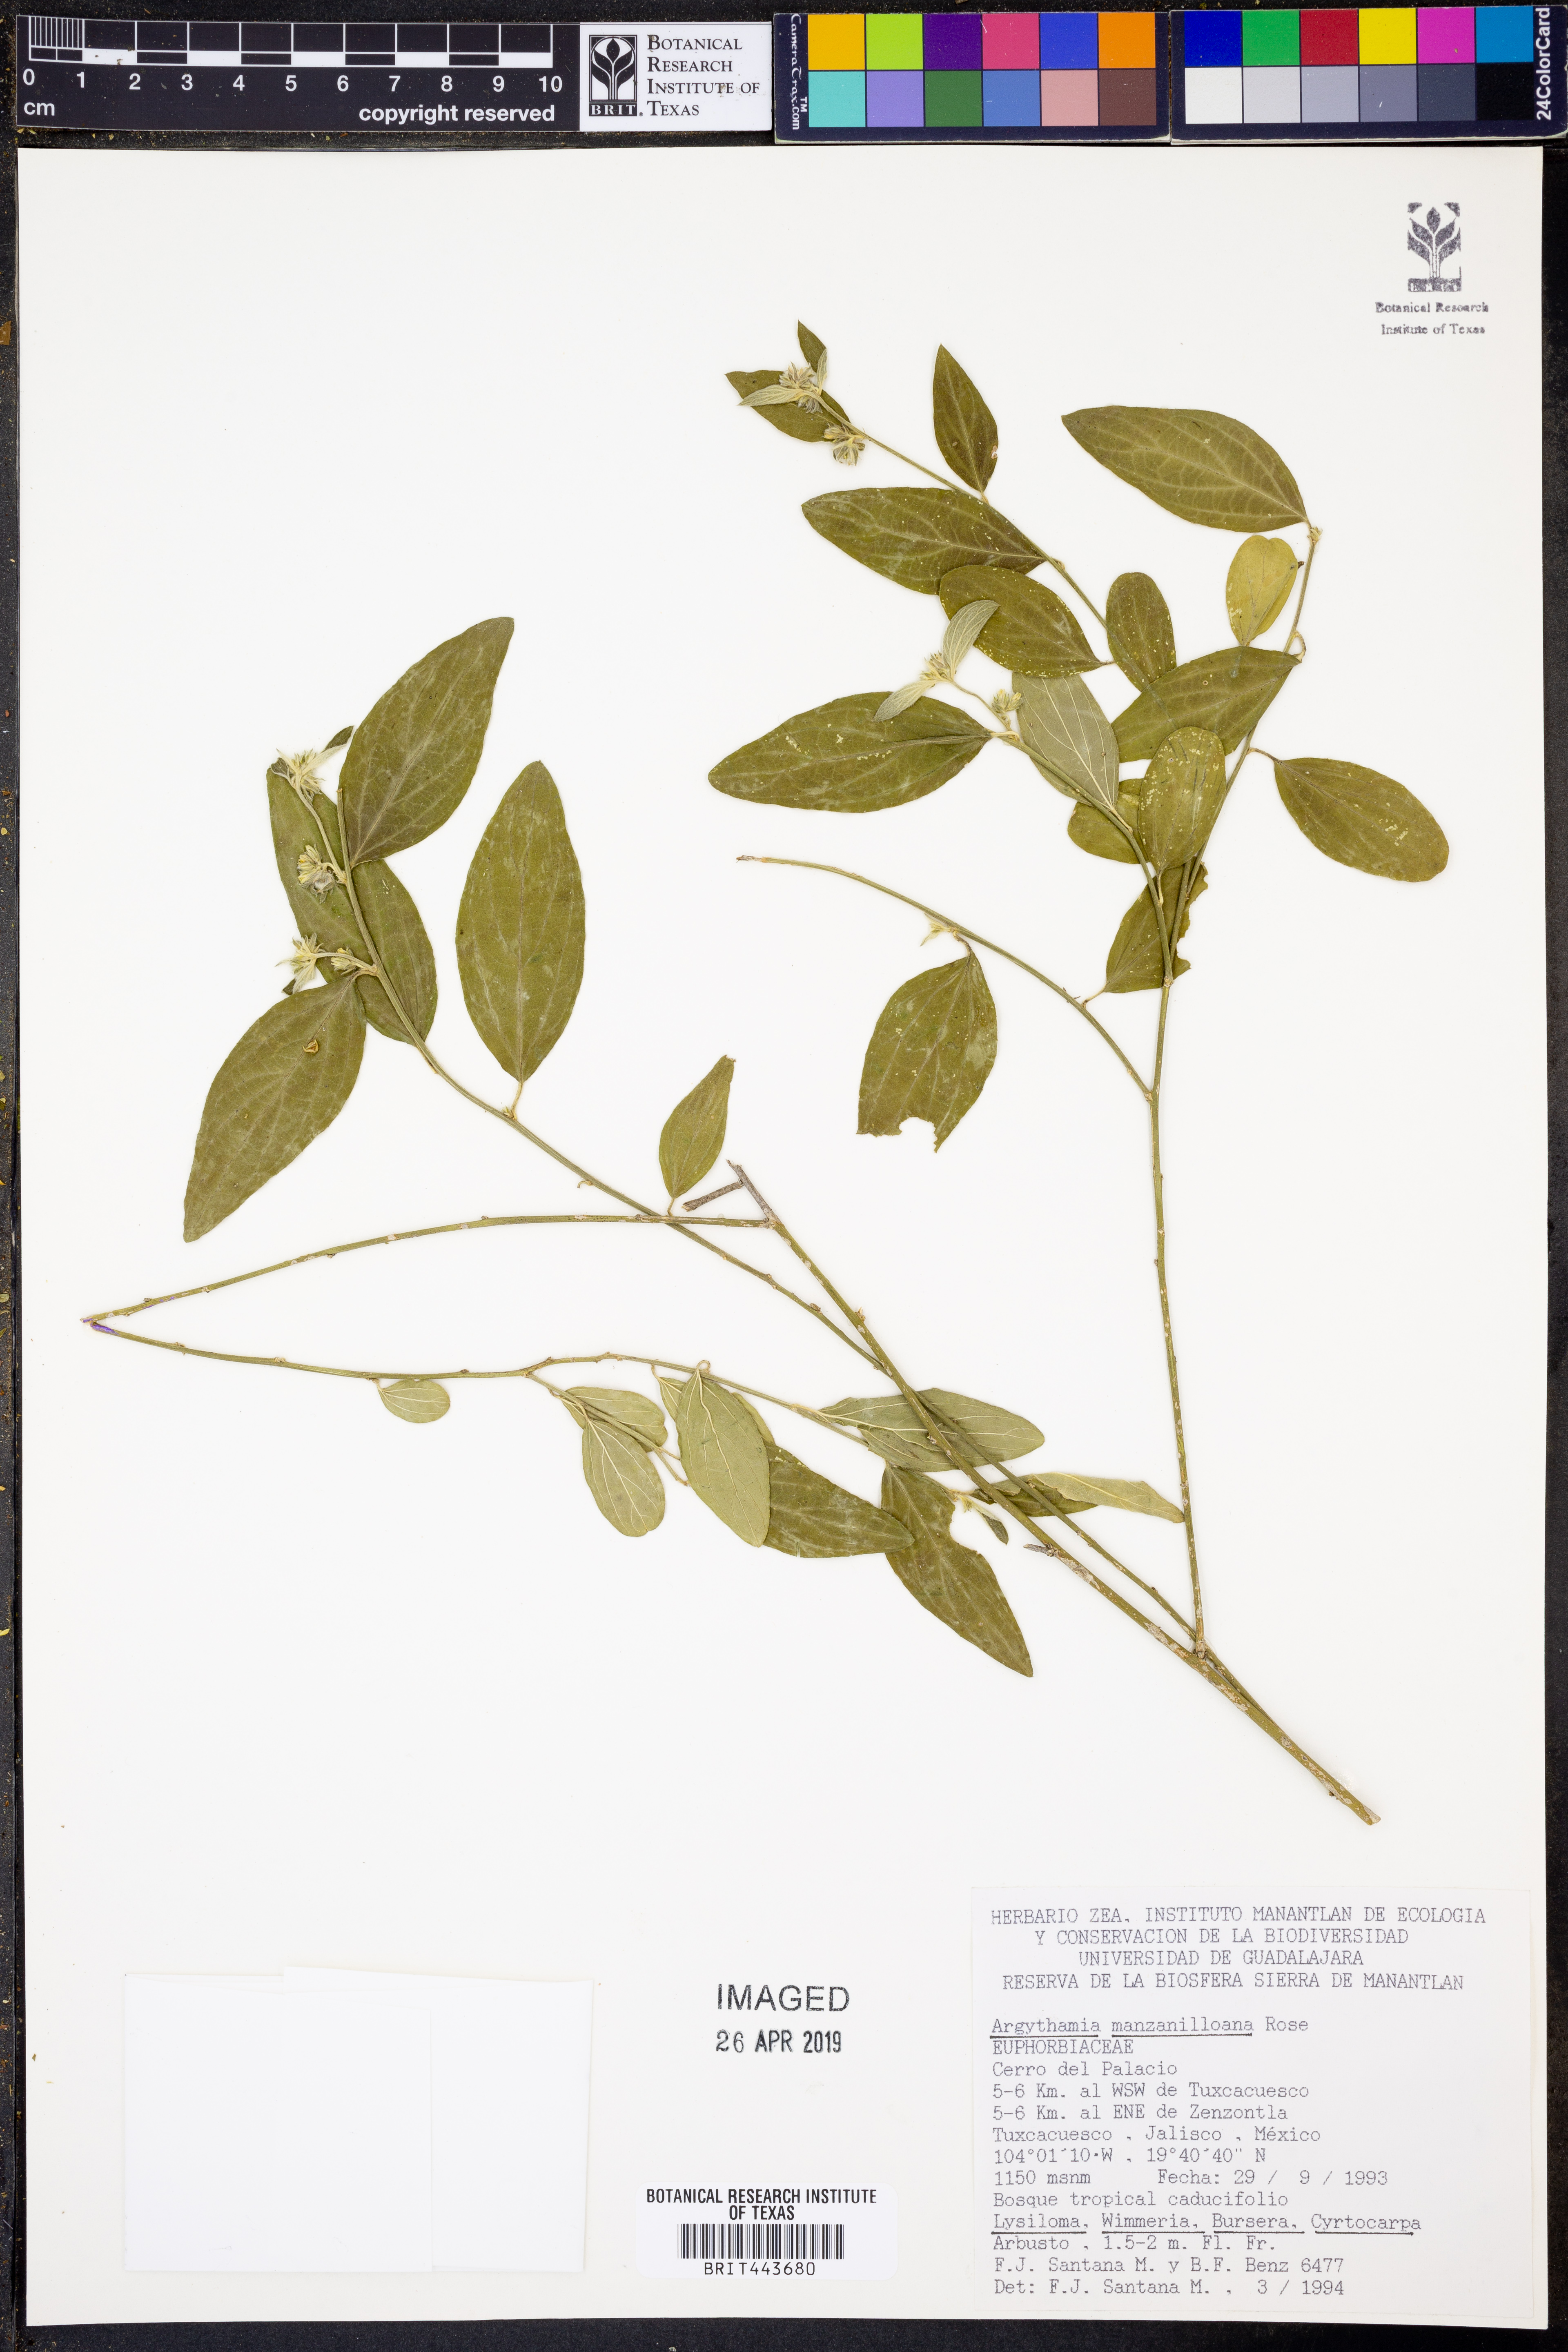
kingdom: Plantae
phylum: Tracheophyta
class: Magnoliopsida
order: Malpighiales
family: Euphorbiaceae
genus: Ditaxis
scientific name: Ditaxis manzanilloana
